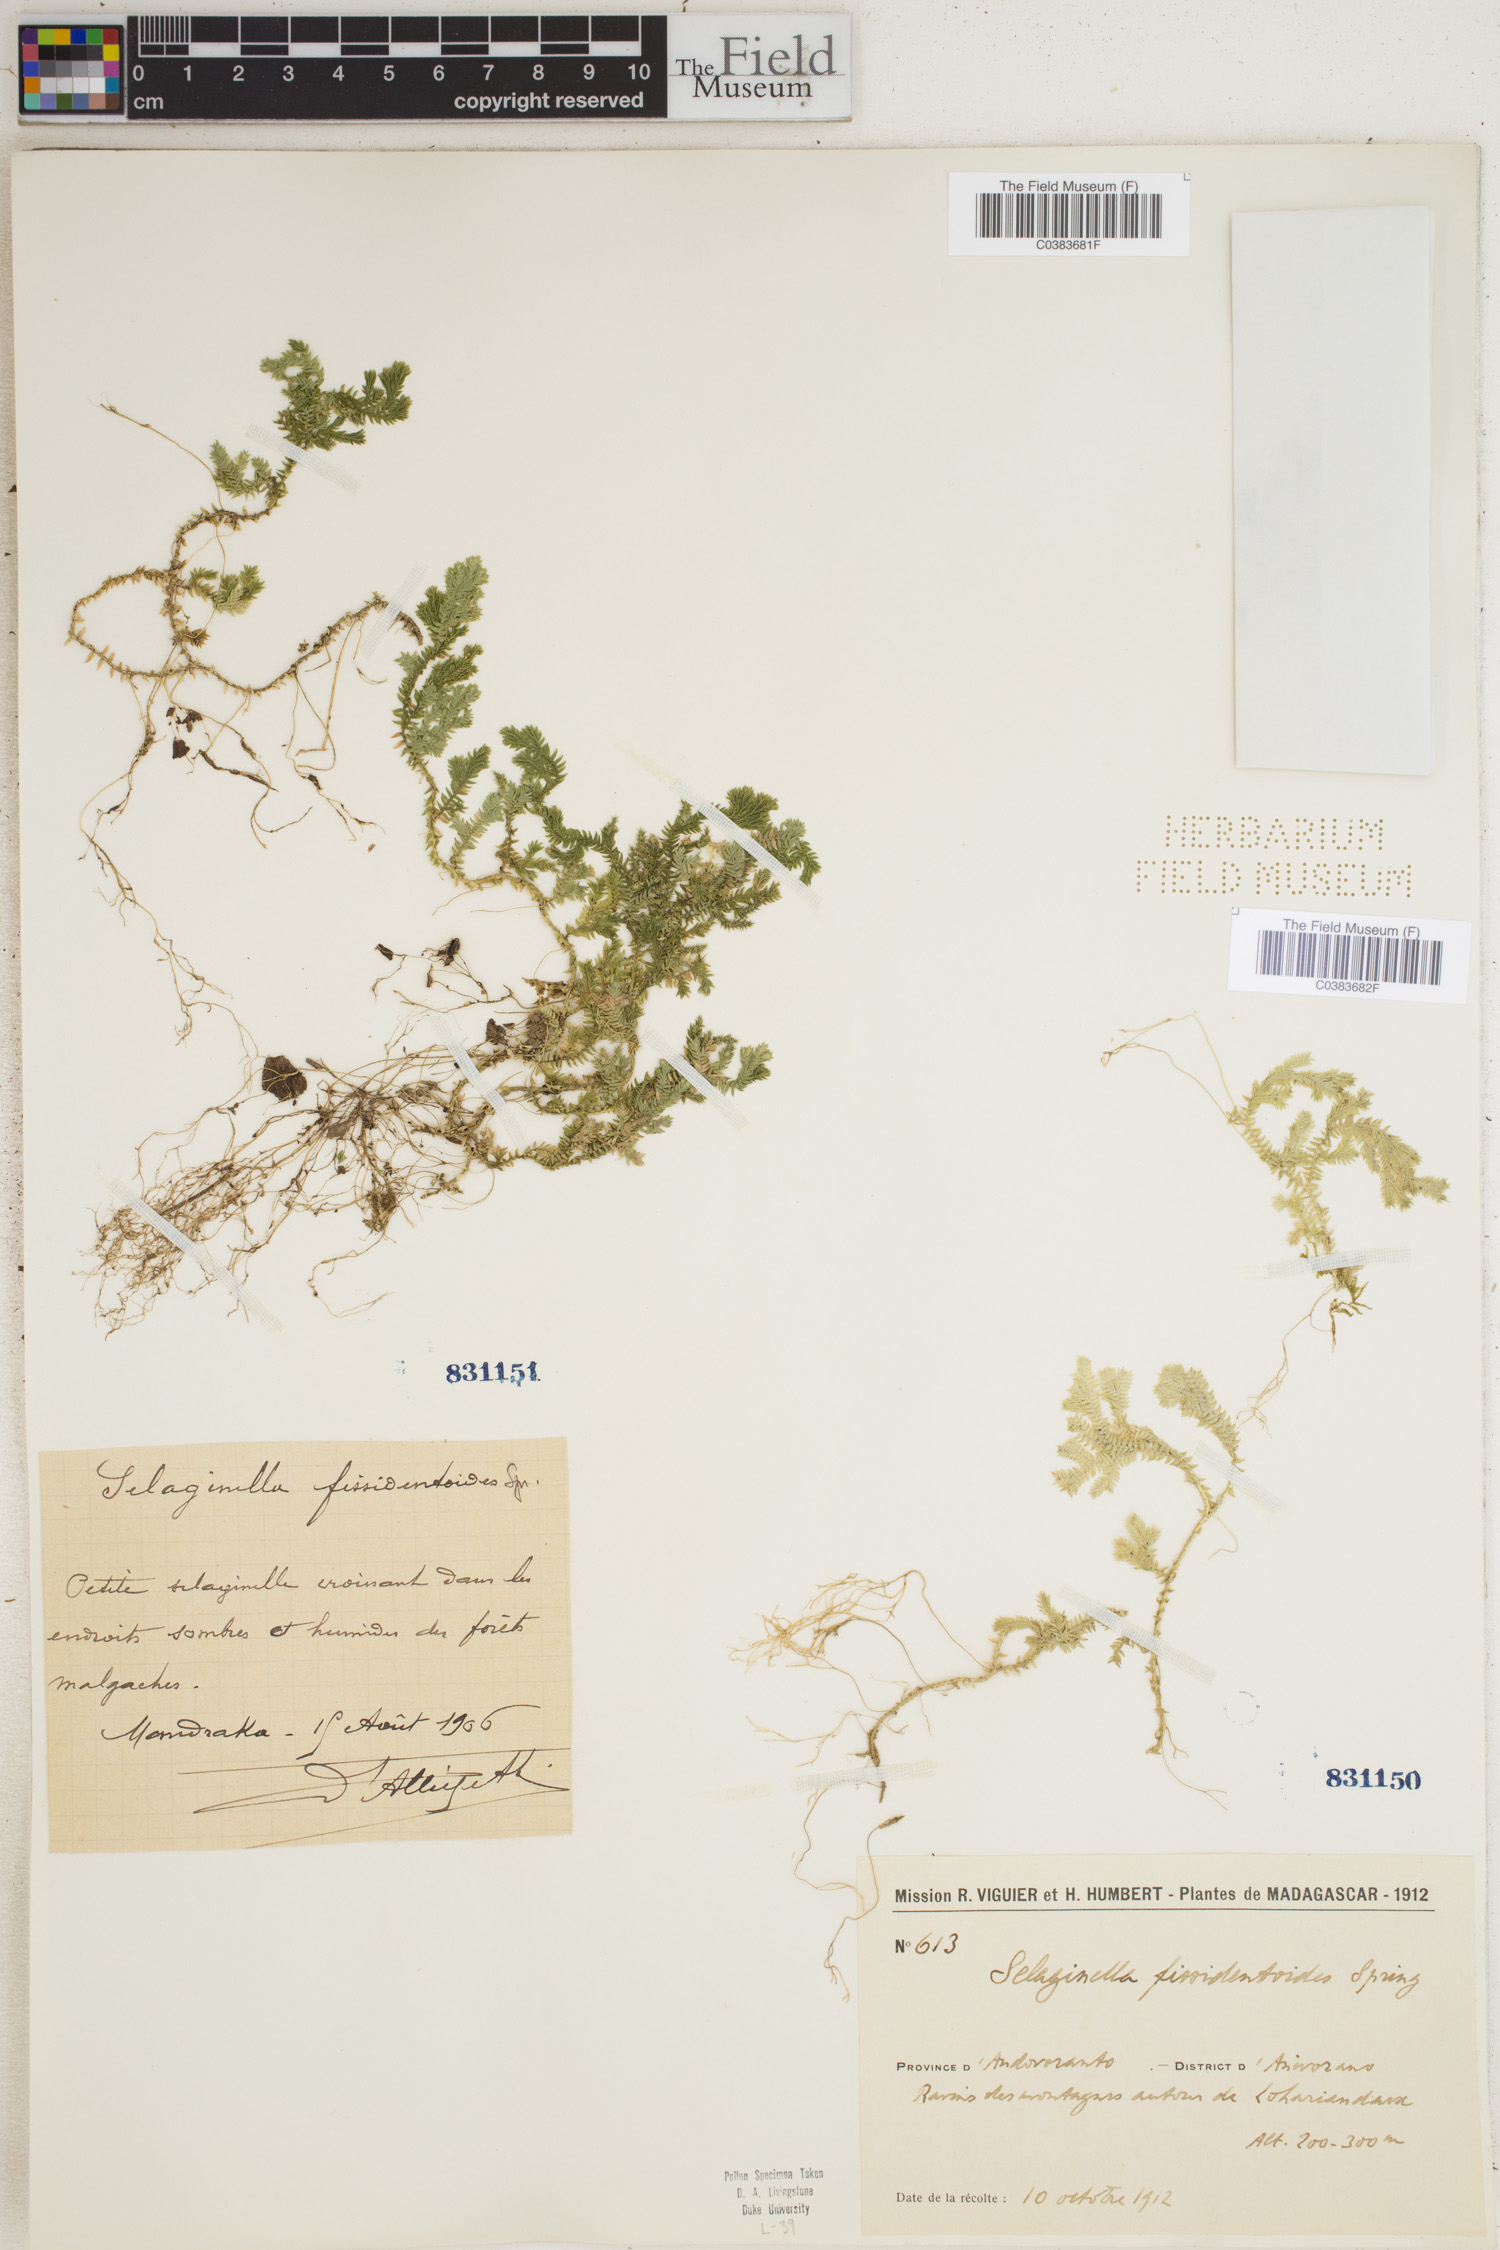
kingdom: Plantae
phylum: Tracheophyta
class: Lycopodiopsida
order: Selaginellales
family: Selaginellaceae
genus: Selaginella
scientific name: Selaginella fissidentoides
